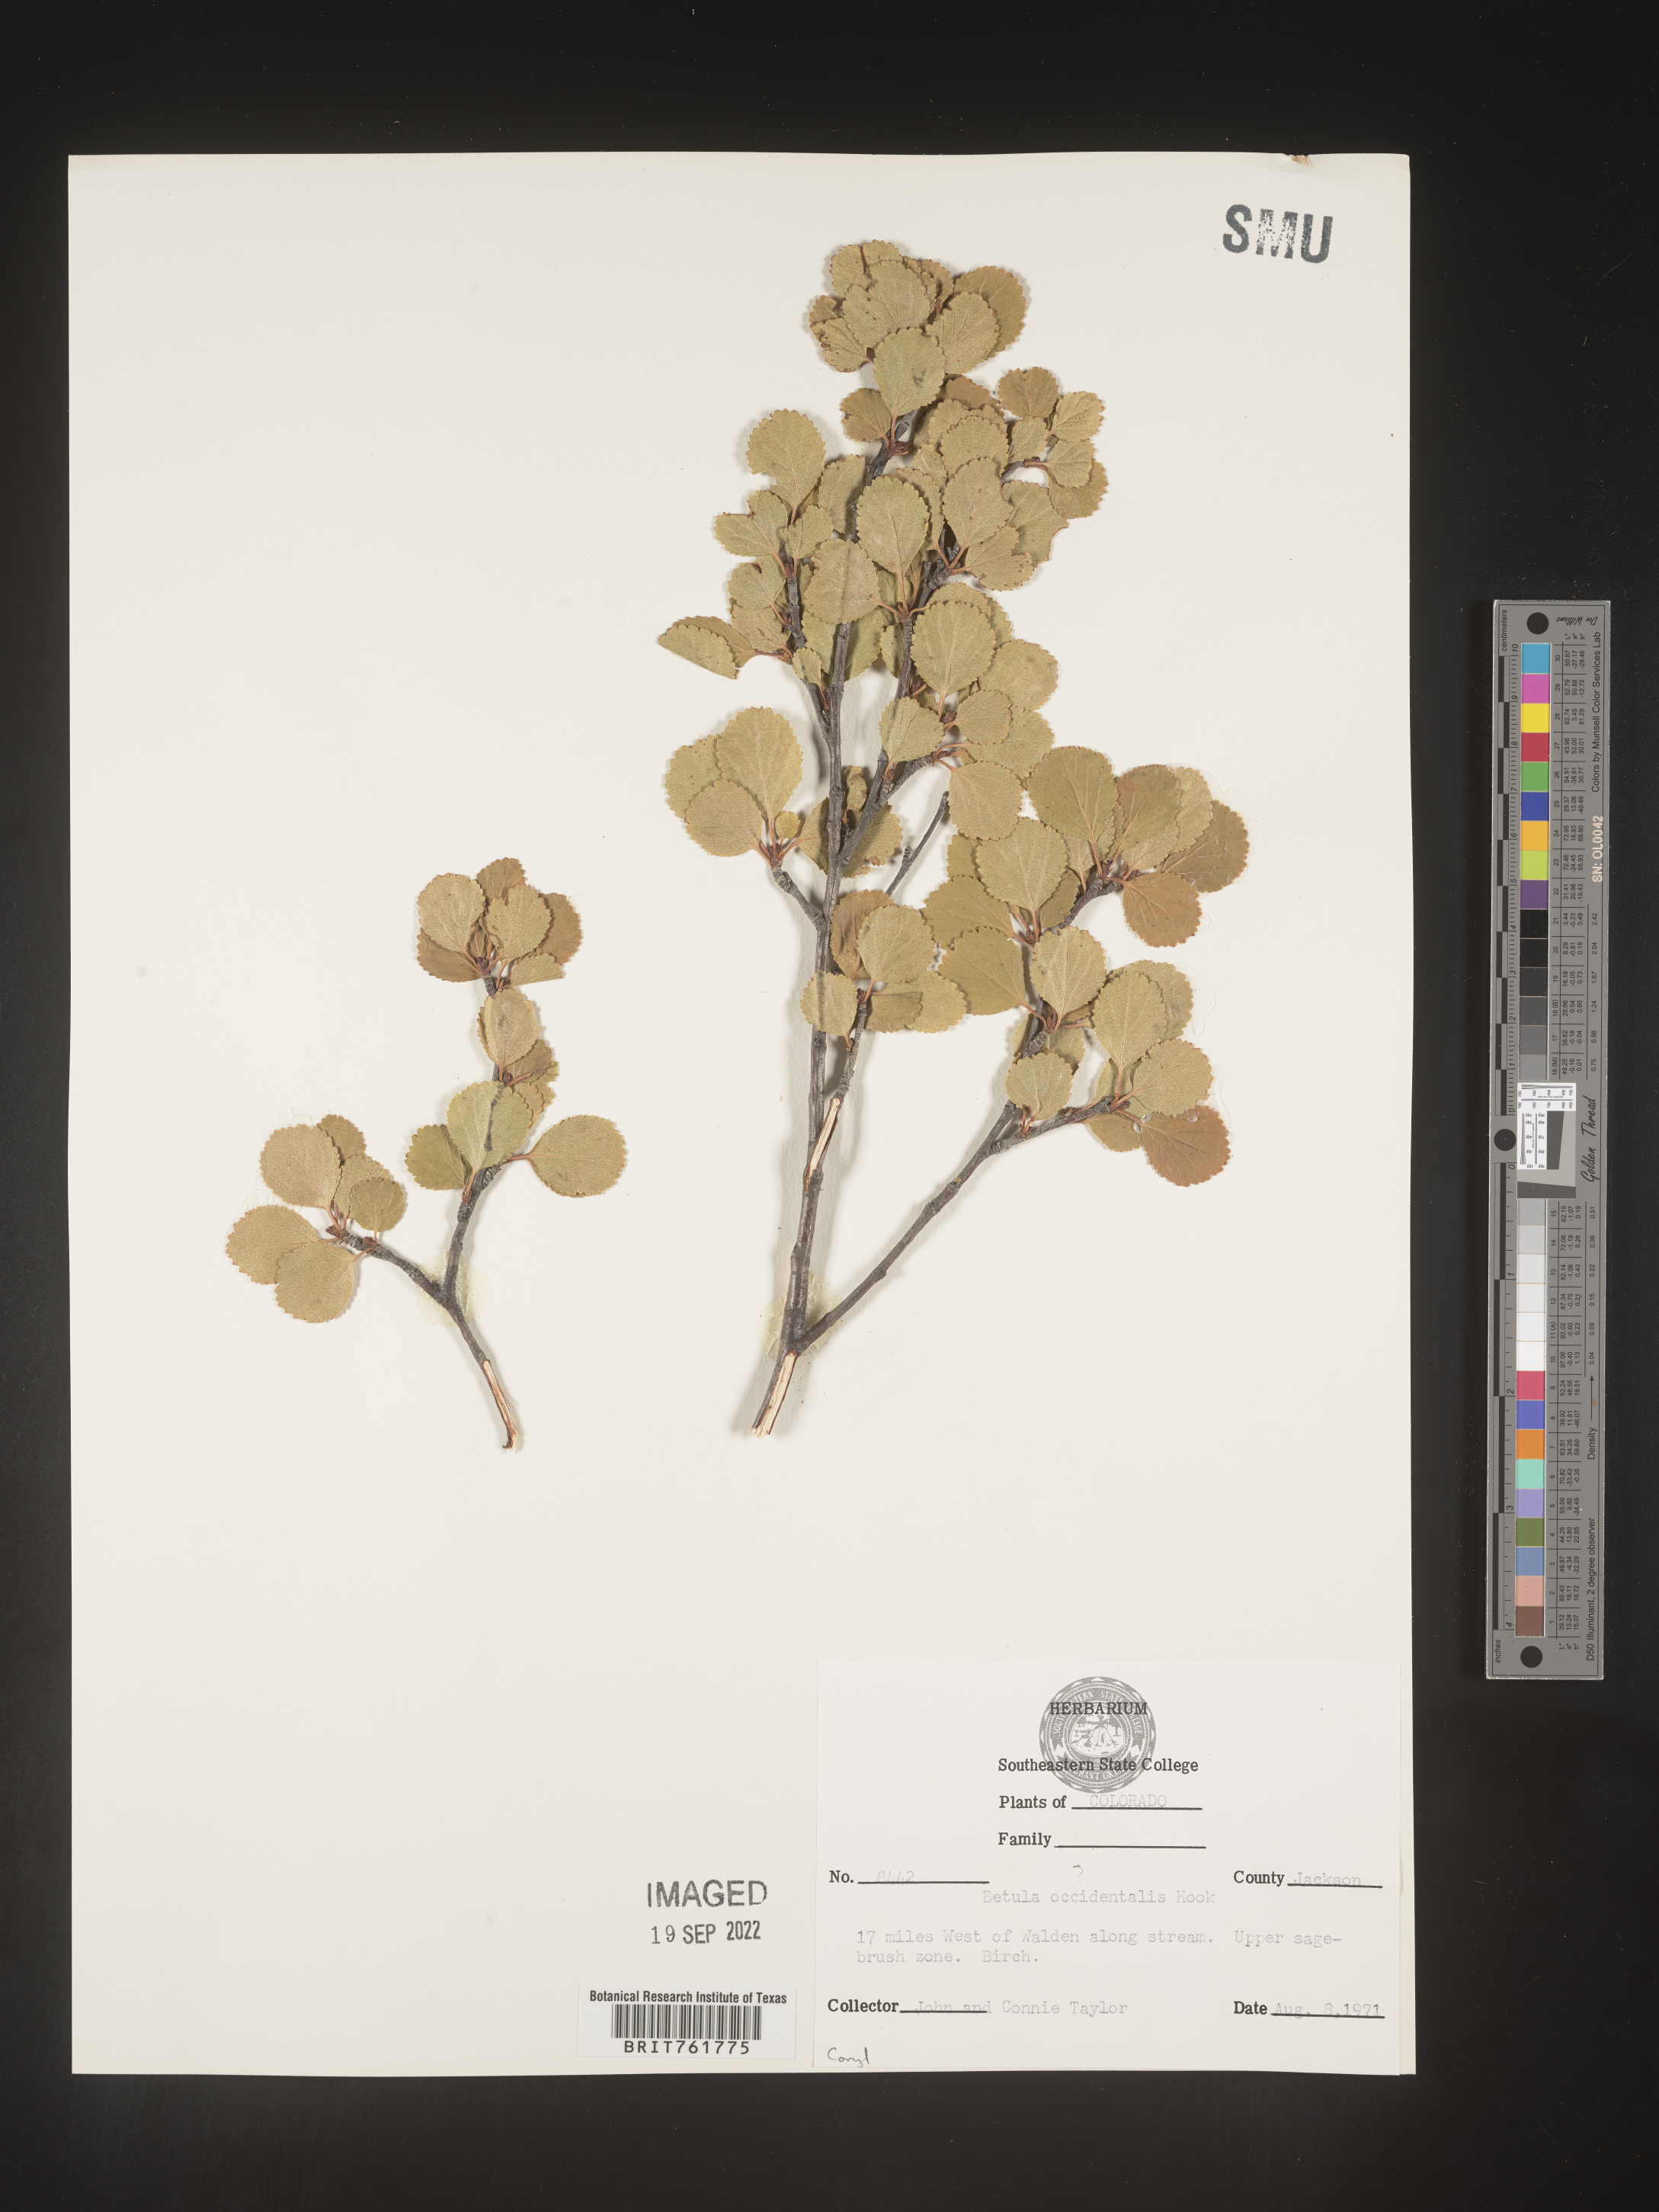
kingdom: Plantae
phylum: Tracheophyta
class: Magnoliopsida
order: Fagales
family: Betulaceae
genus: Betula
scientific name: Betula occidentalis
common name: River birch
